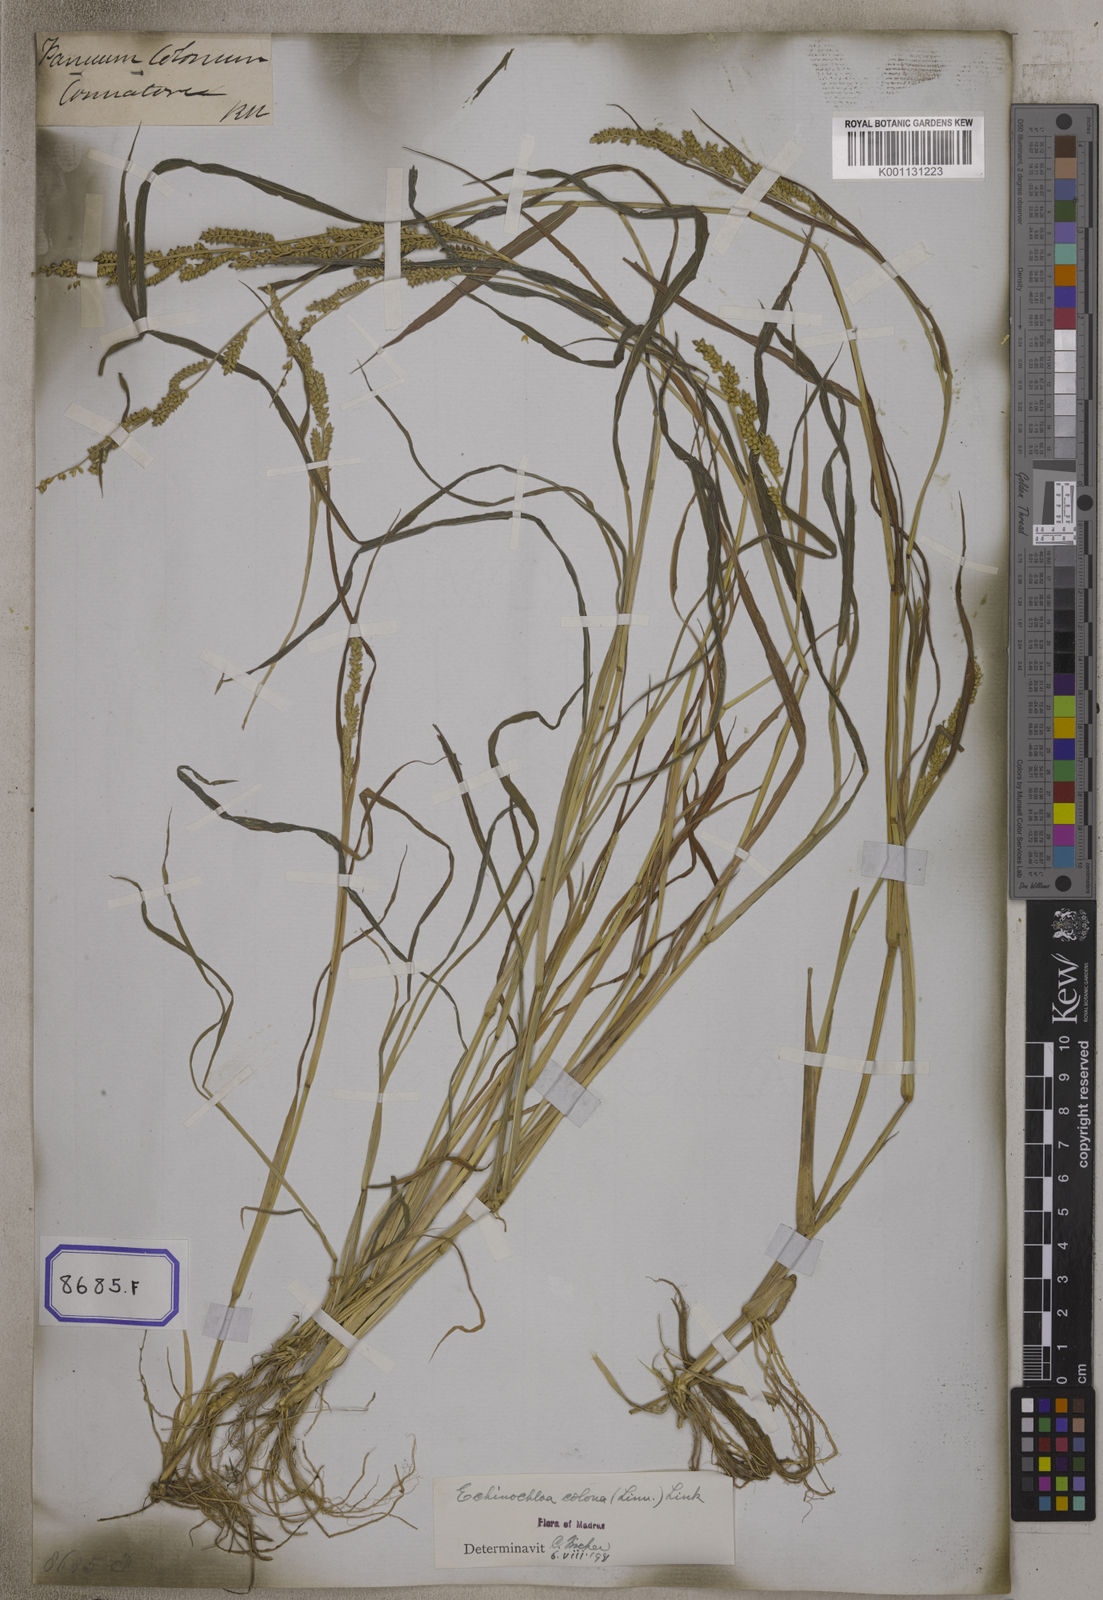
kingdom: Plantae
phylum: Tracheophyta
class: Liliopsida
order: Poales
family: Poaceae
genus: Echinochloa
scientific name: Echinochloa colonum
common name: Jungle rice
